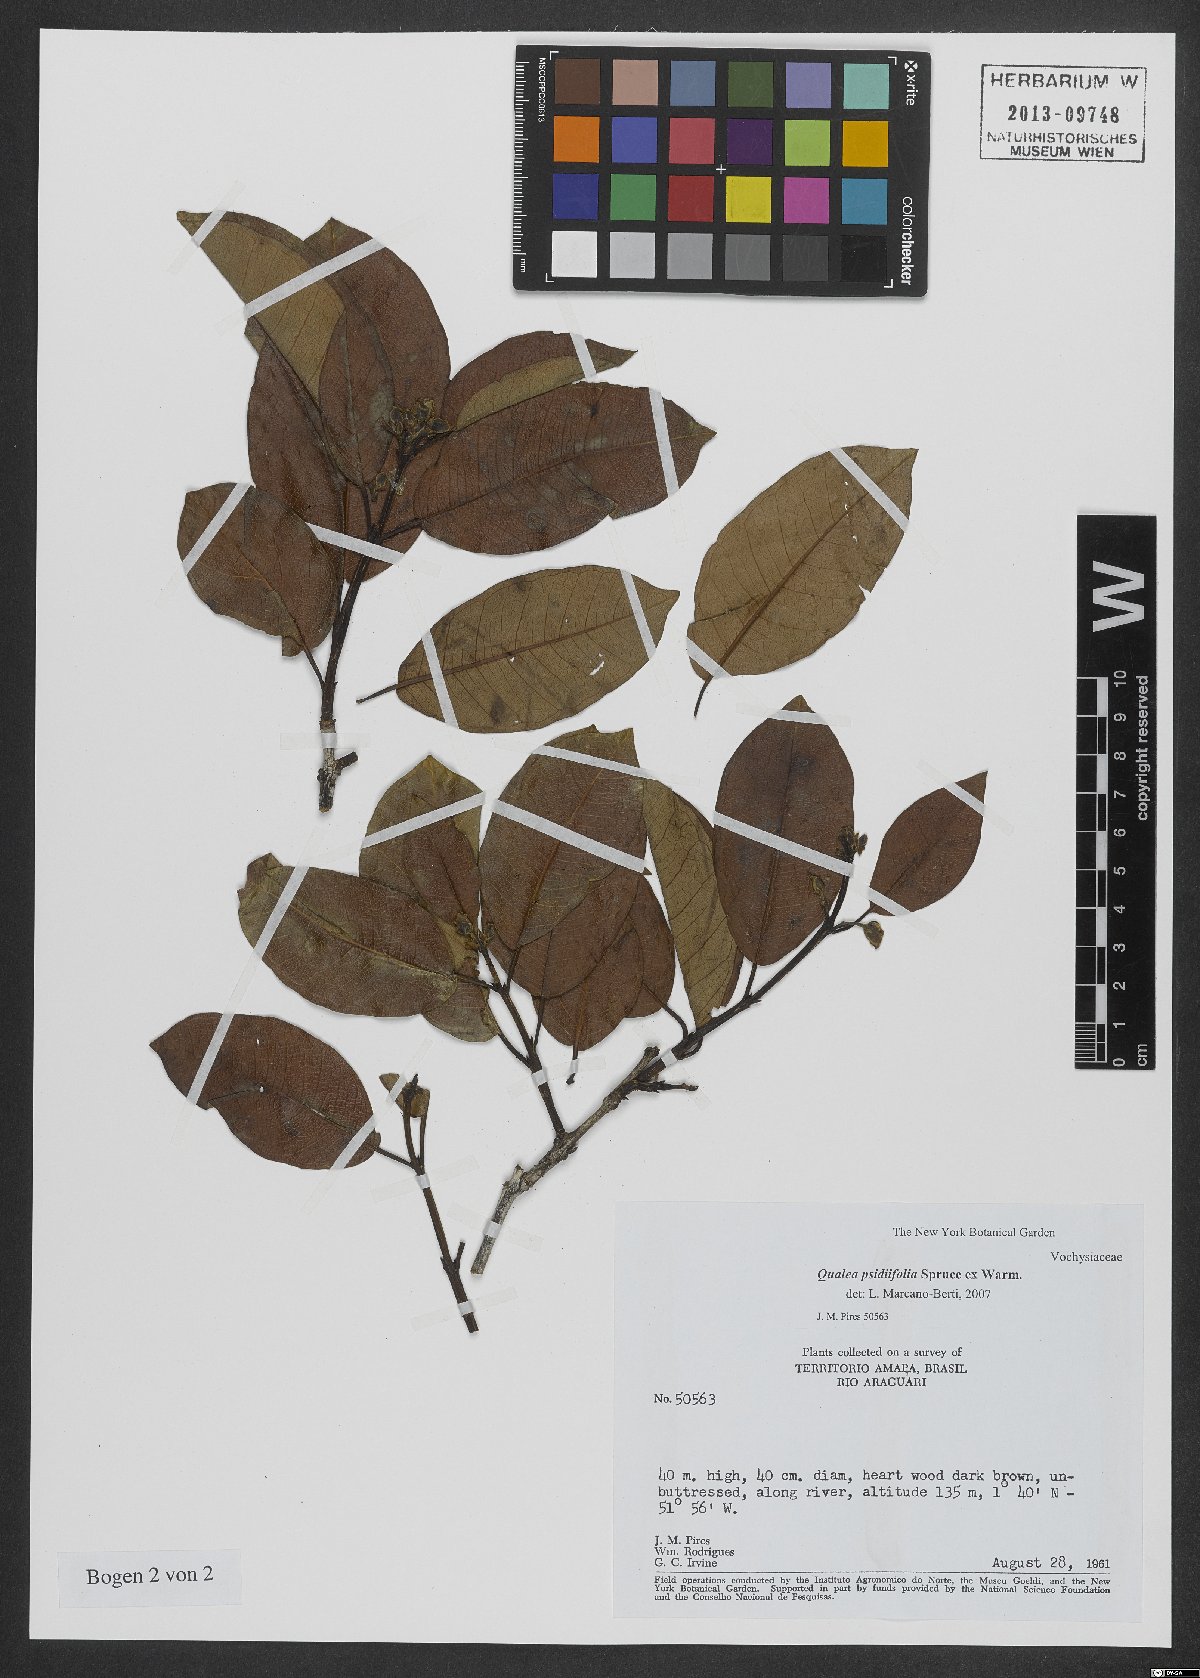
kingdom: Plantae
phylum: Tracheophyta
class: Magnoliopsida
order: Myrtales
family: Vochysiaceae
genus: Qualea
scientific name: Qualea psidiifolia
